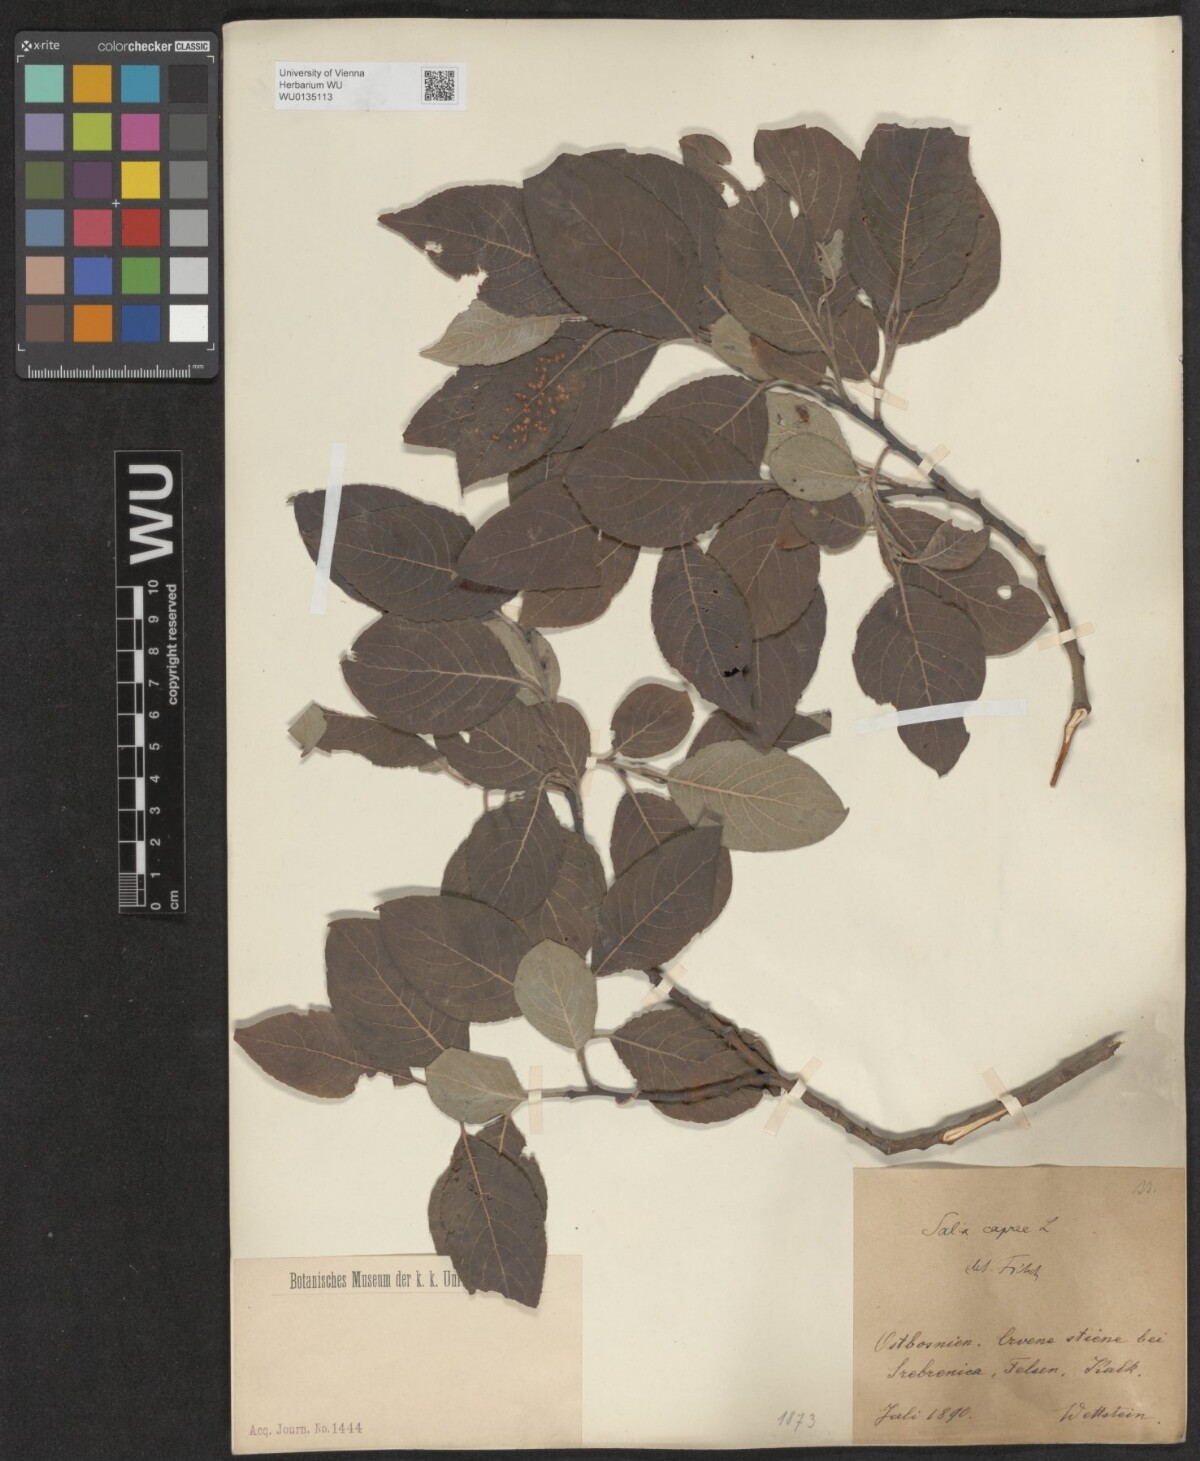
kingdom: Plantae
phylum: Tracheophyta
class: Magnoliopsida
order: Malpighiales
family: Salicaceae
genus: Salix
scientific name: Salix caprea
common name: Goat willow
